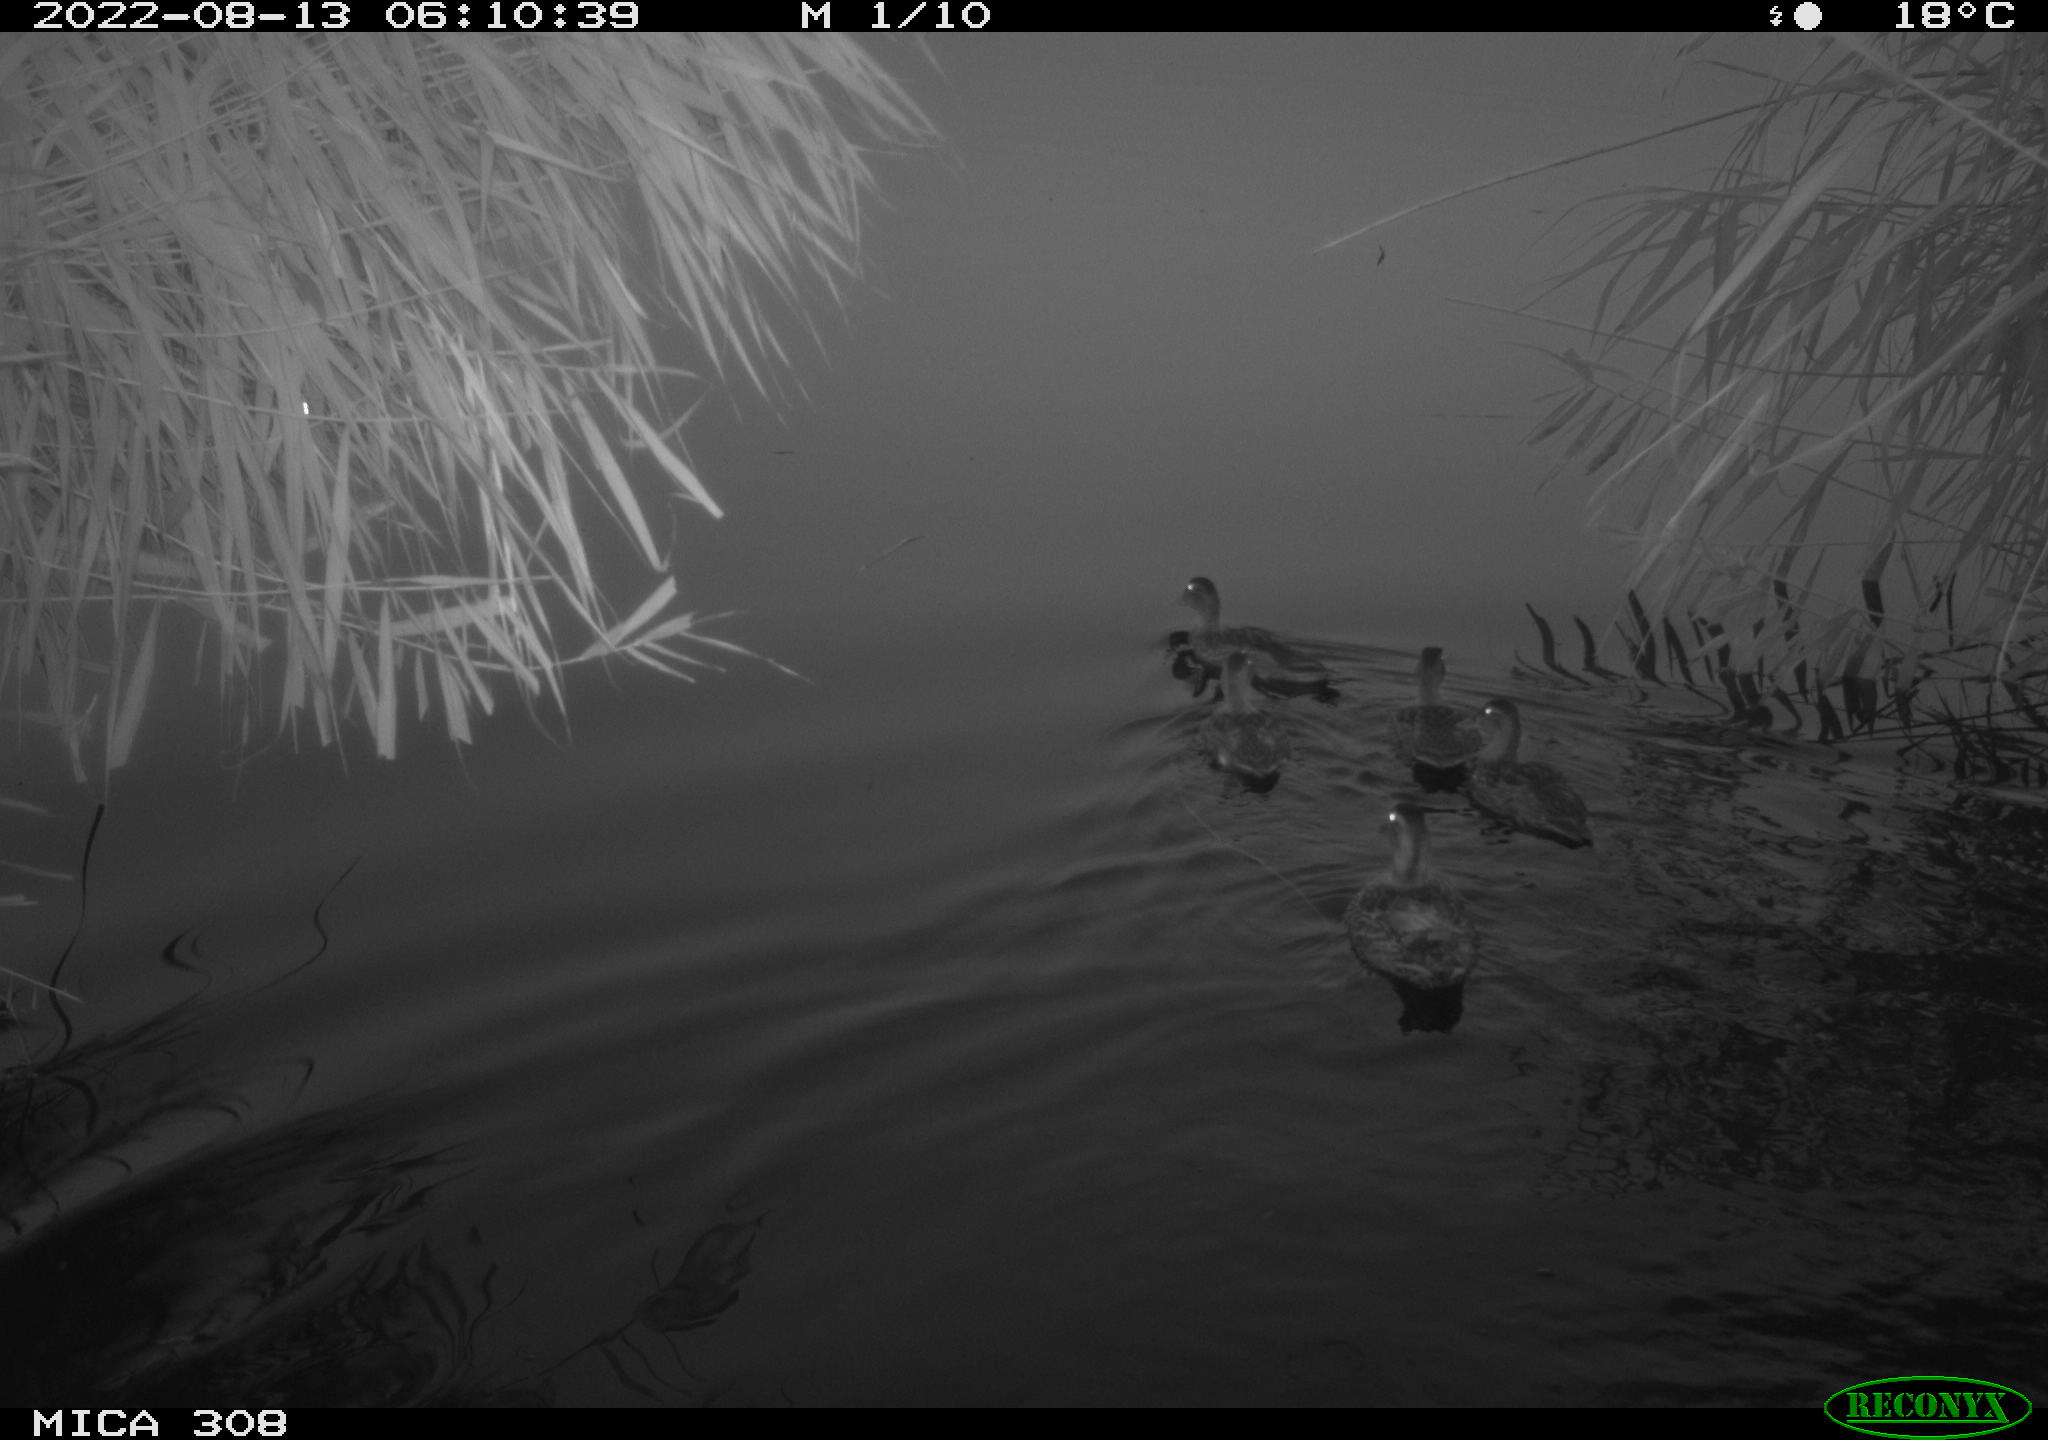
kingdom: Animalia
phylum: Chordata
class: Aves
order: Anseriformes
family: Anatidae
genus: Anas
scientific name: Anas platyrhynchos
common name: Mallard
